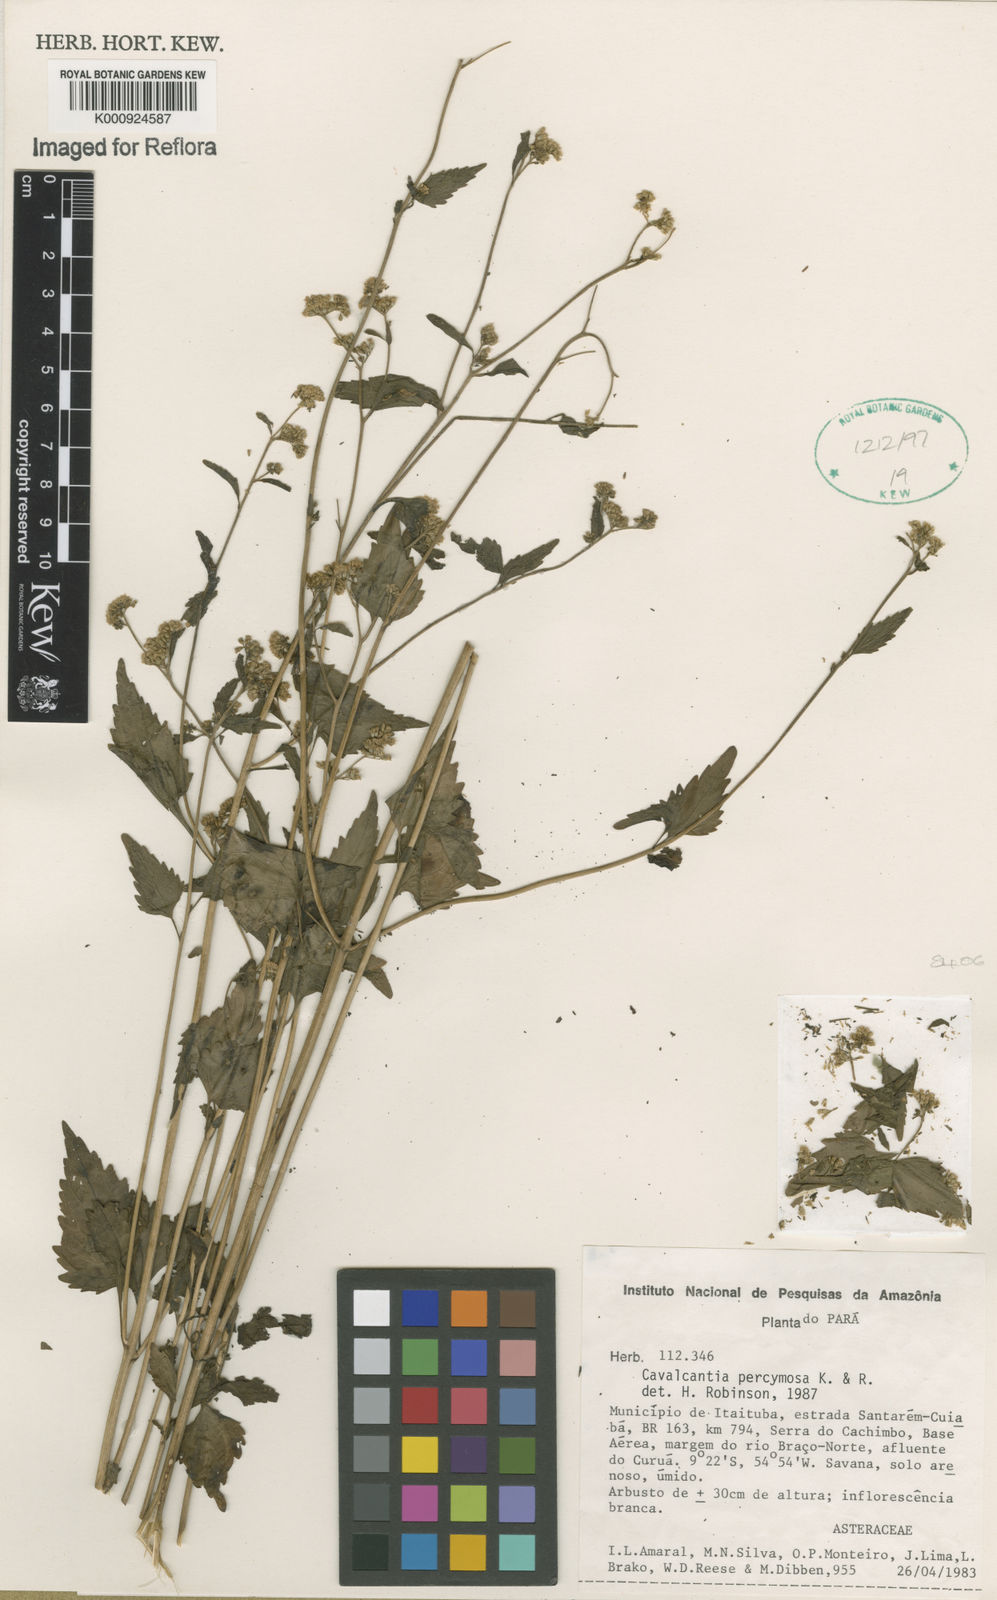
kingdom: Plantae
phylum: Tracheophyta
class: Magnoliopsida
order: Asterales
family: Asteraceae
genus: Cavalcantia
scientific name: Cavalcantia percymosa
